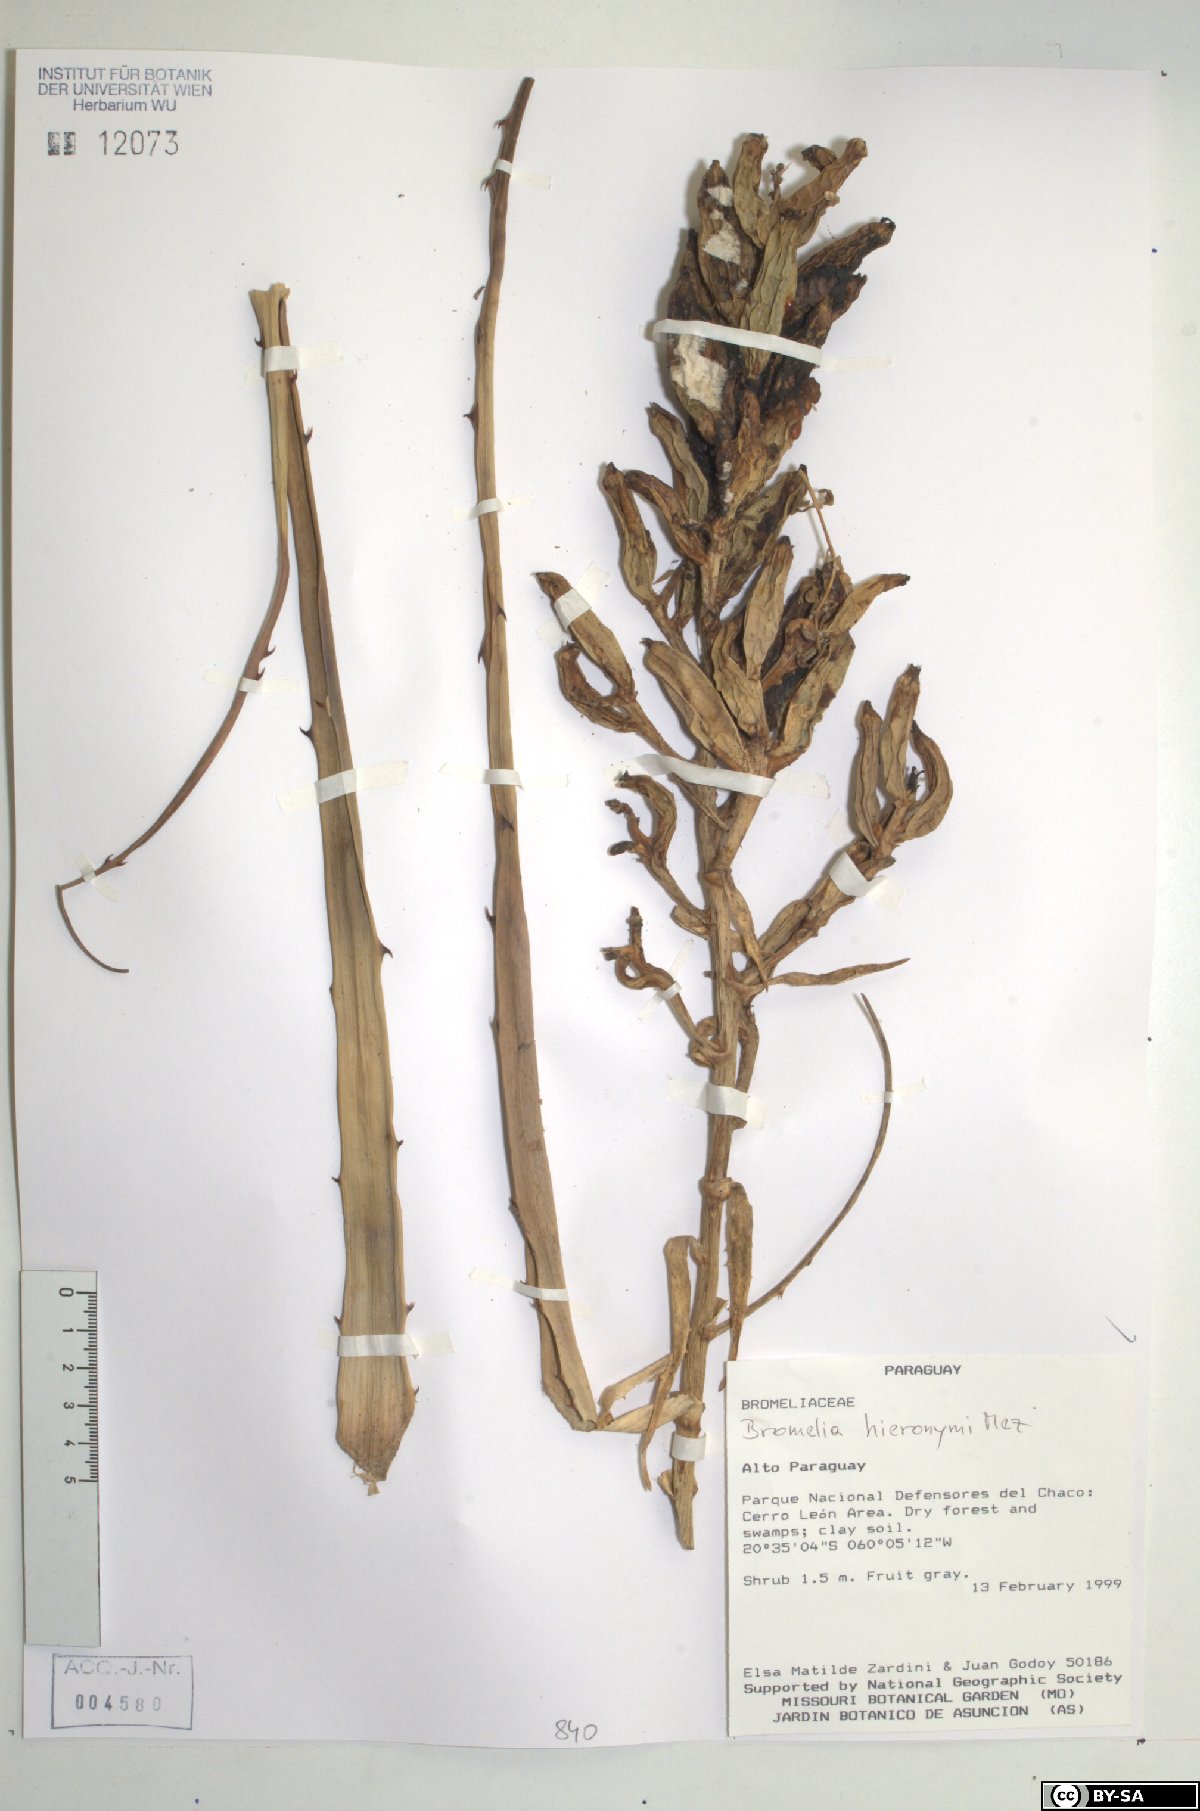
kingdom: Plantae
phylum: Tracheophyta
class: Liliopsida
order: Poales
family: Bromeliaceae
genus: Bromelia
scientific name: Bromelia hieronymi
